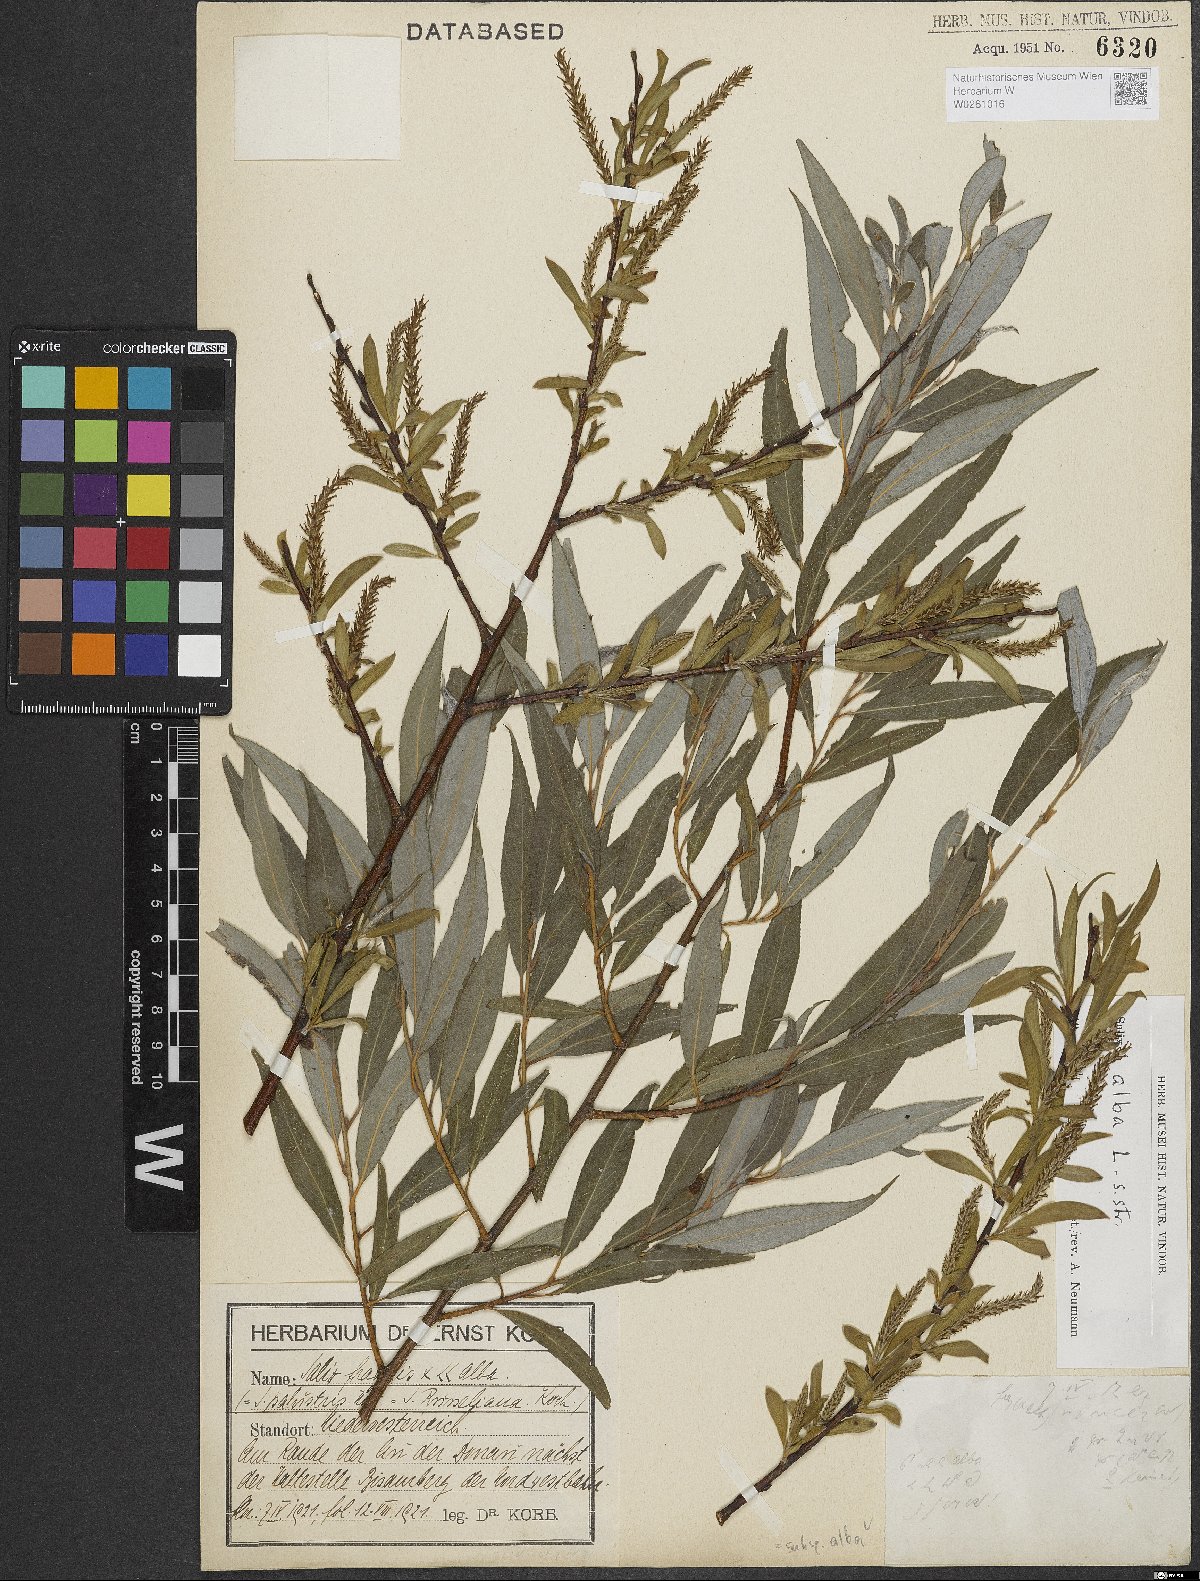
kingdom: Plantae
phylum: Tracheophyta
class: Magnoliopsida
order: Malpighiales
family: Salicaceae
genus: Salix
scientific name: Salix alba
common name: White willow
